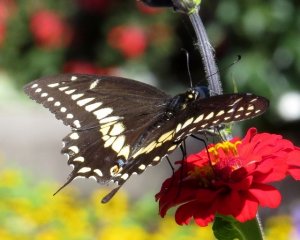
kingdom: Animalia
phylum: Arthropoda
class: Insecta
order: Lepidoptera
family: Papilionidae
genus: Papilio
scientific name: Papilio polyxenes
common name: Black Swallowtail
